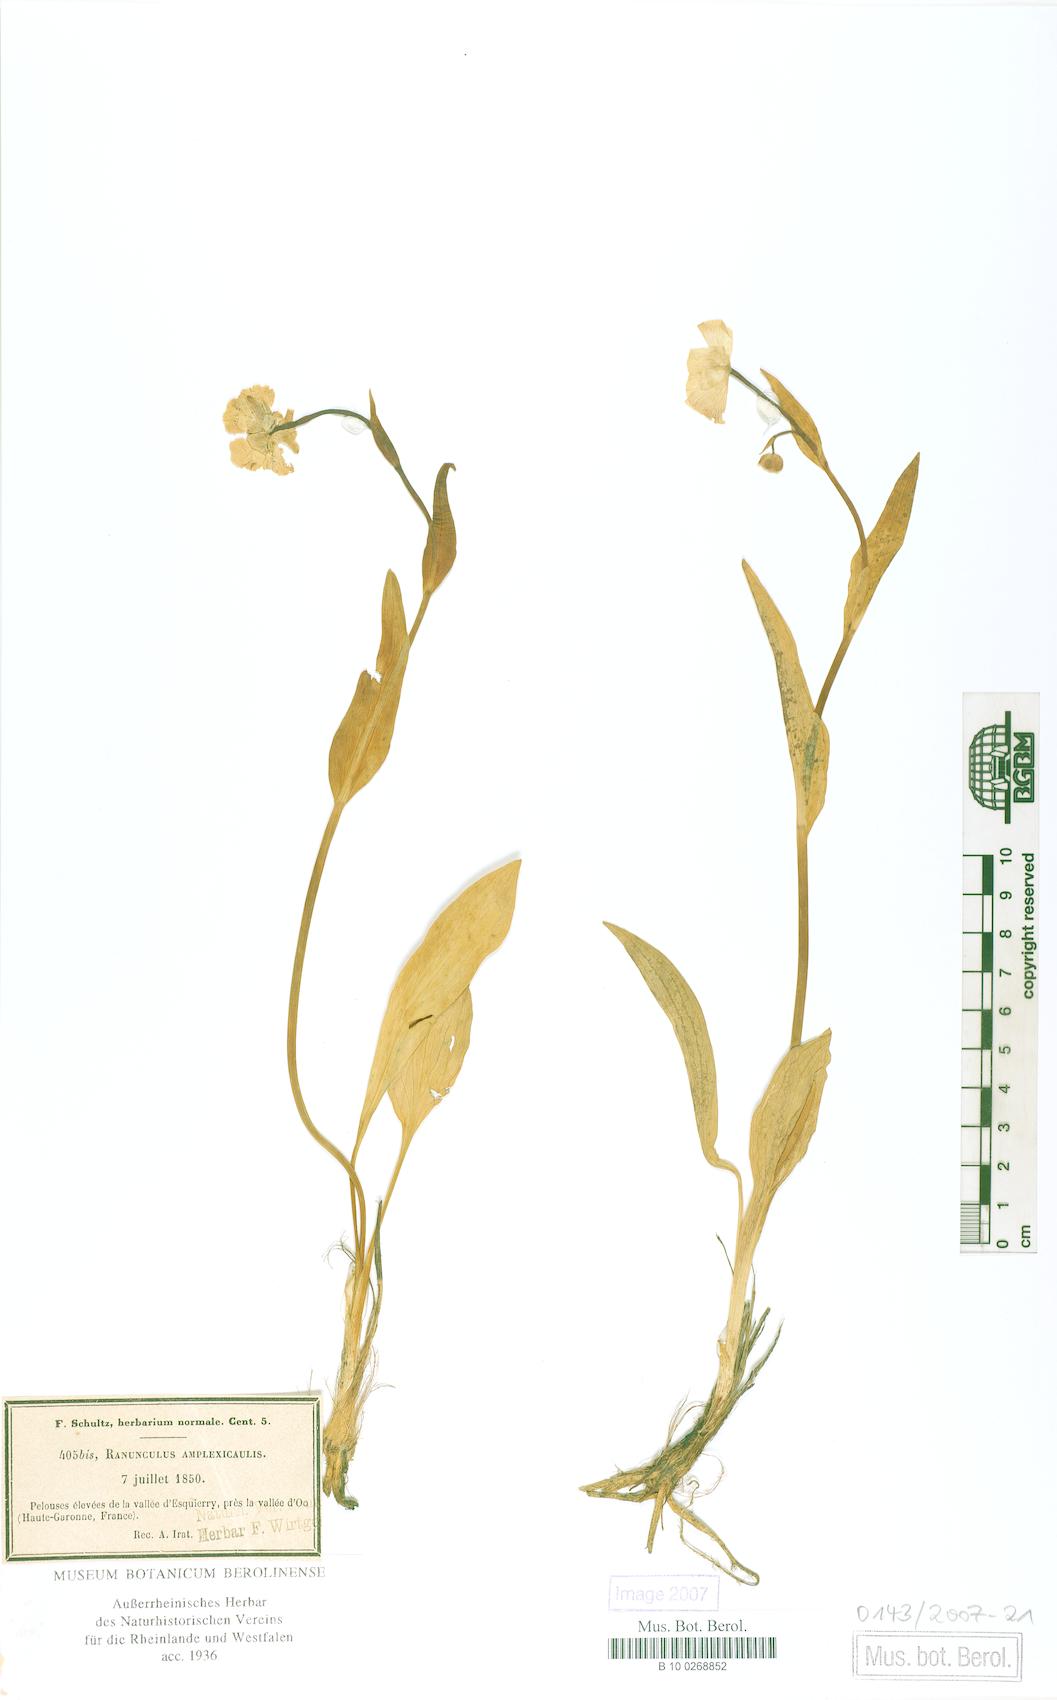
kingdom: Plantae
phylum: Tracheophyta
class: Magnoliopsida
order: Ranunculales
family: Ranunculaceae
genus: Ranunculus
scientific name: Ranunculus amplexicaulis
